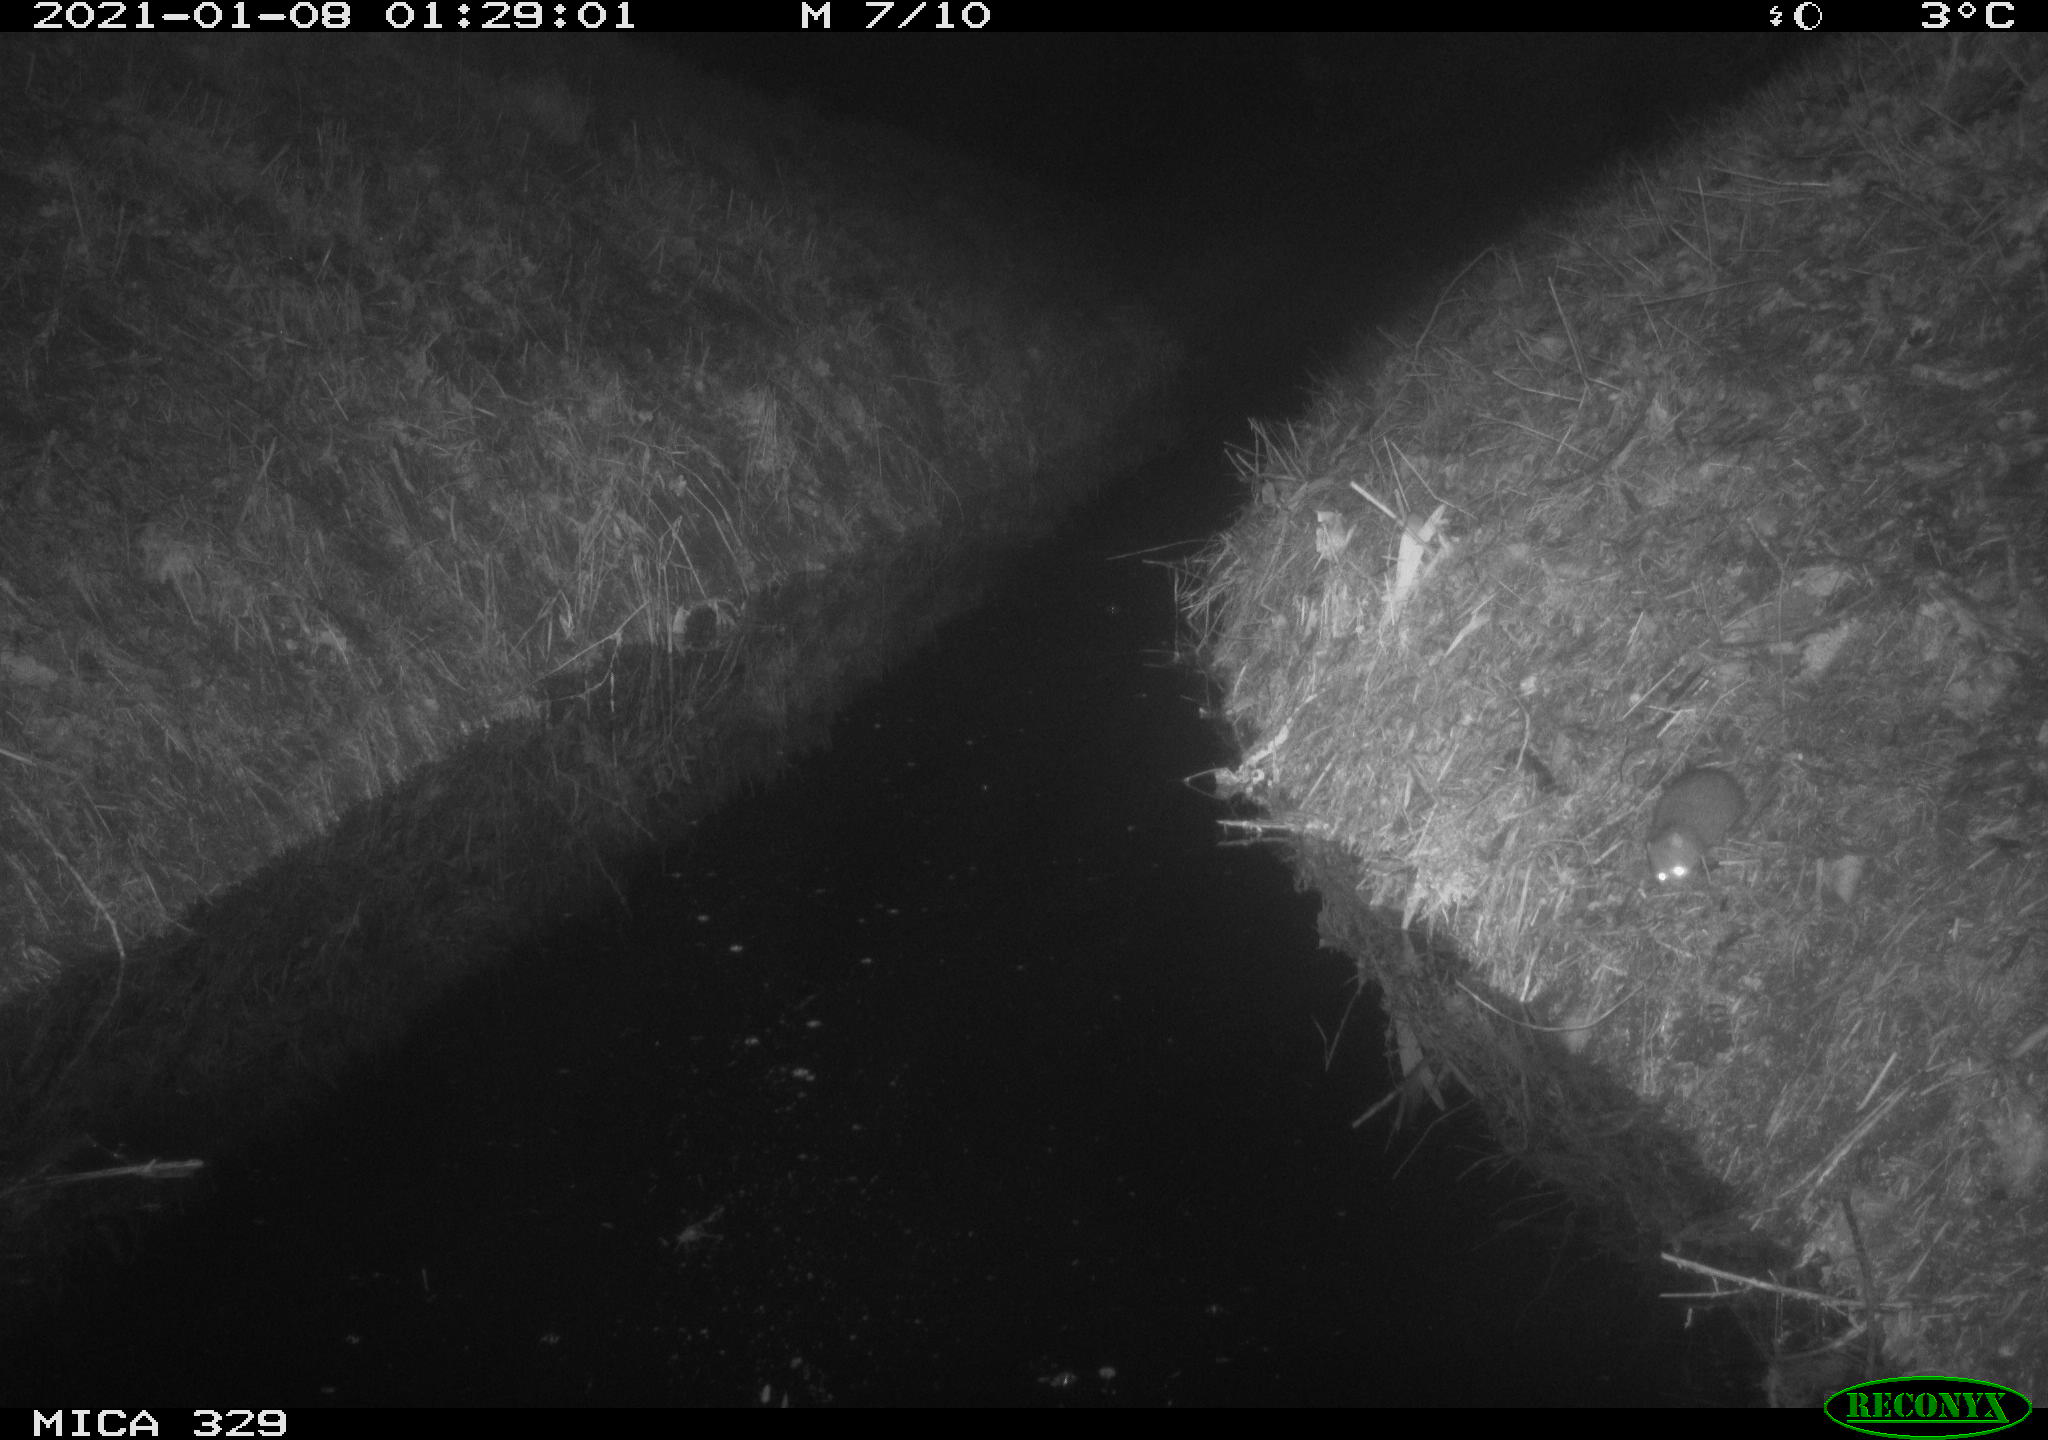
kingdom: Animalia
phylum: Chordata
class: Mammalia
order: Rodentia
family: Muridae
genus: Rattus
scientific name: Rattus norvegicus
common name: Brown rat
